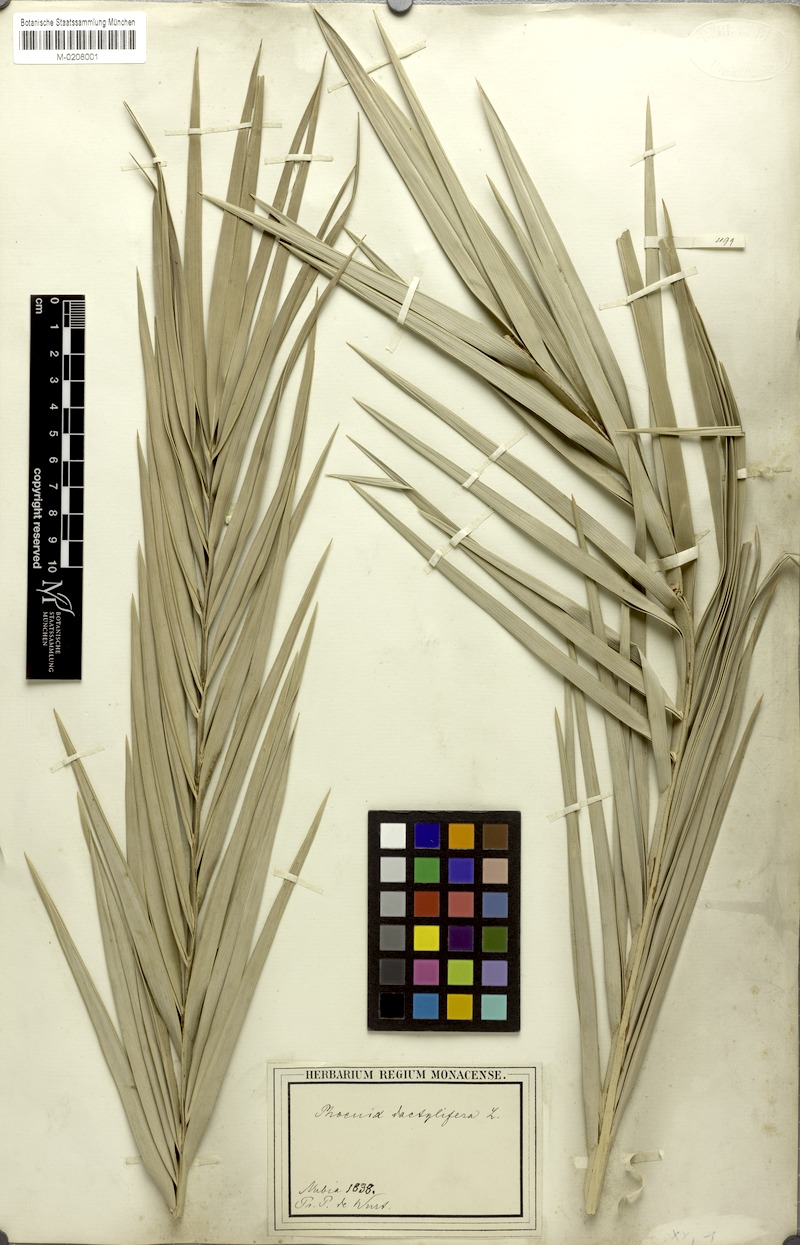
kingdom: Plantae
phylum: Tracheophyta
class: Liliopsida
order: Arecales
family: Arecaceae
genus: Phoenix
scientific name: Phoenix dactylifera
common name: Date palm
